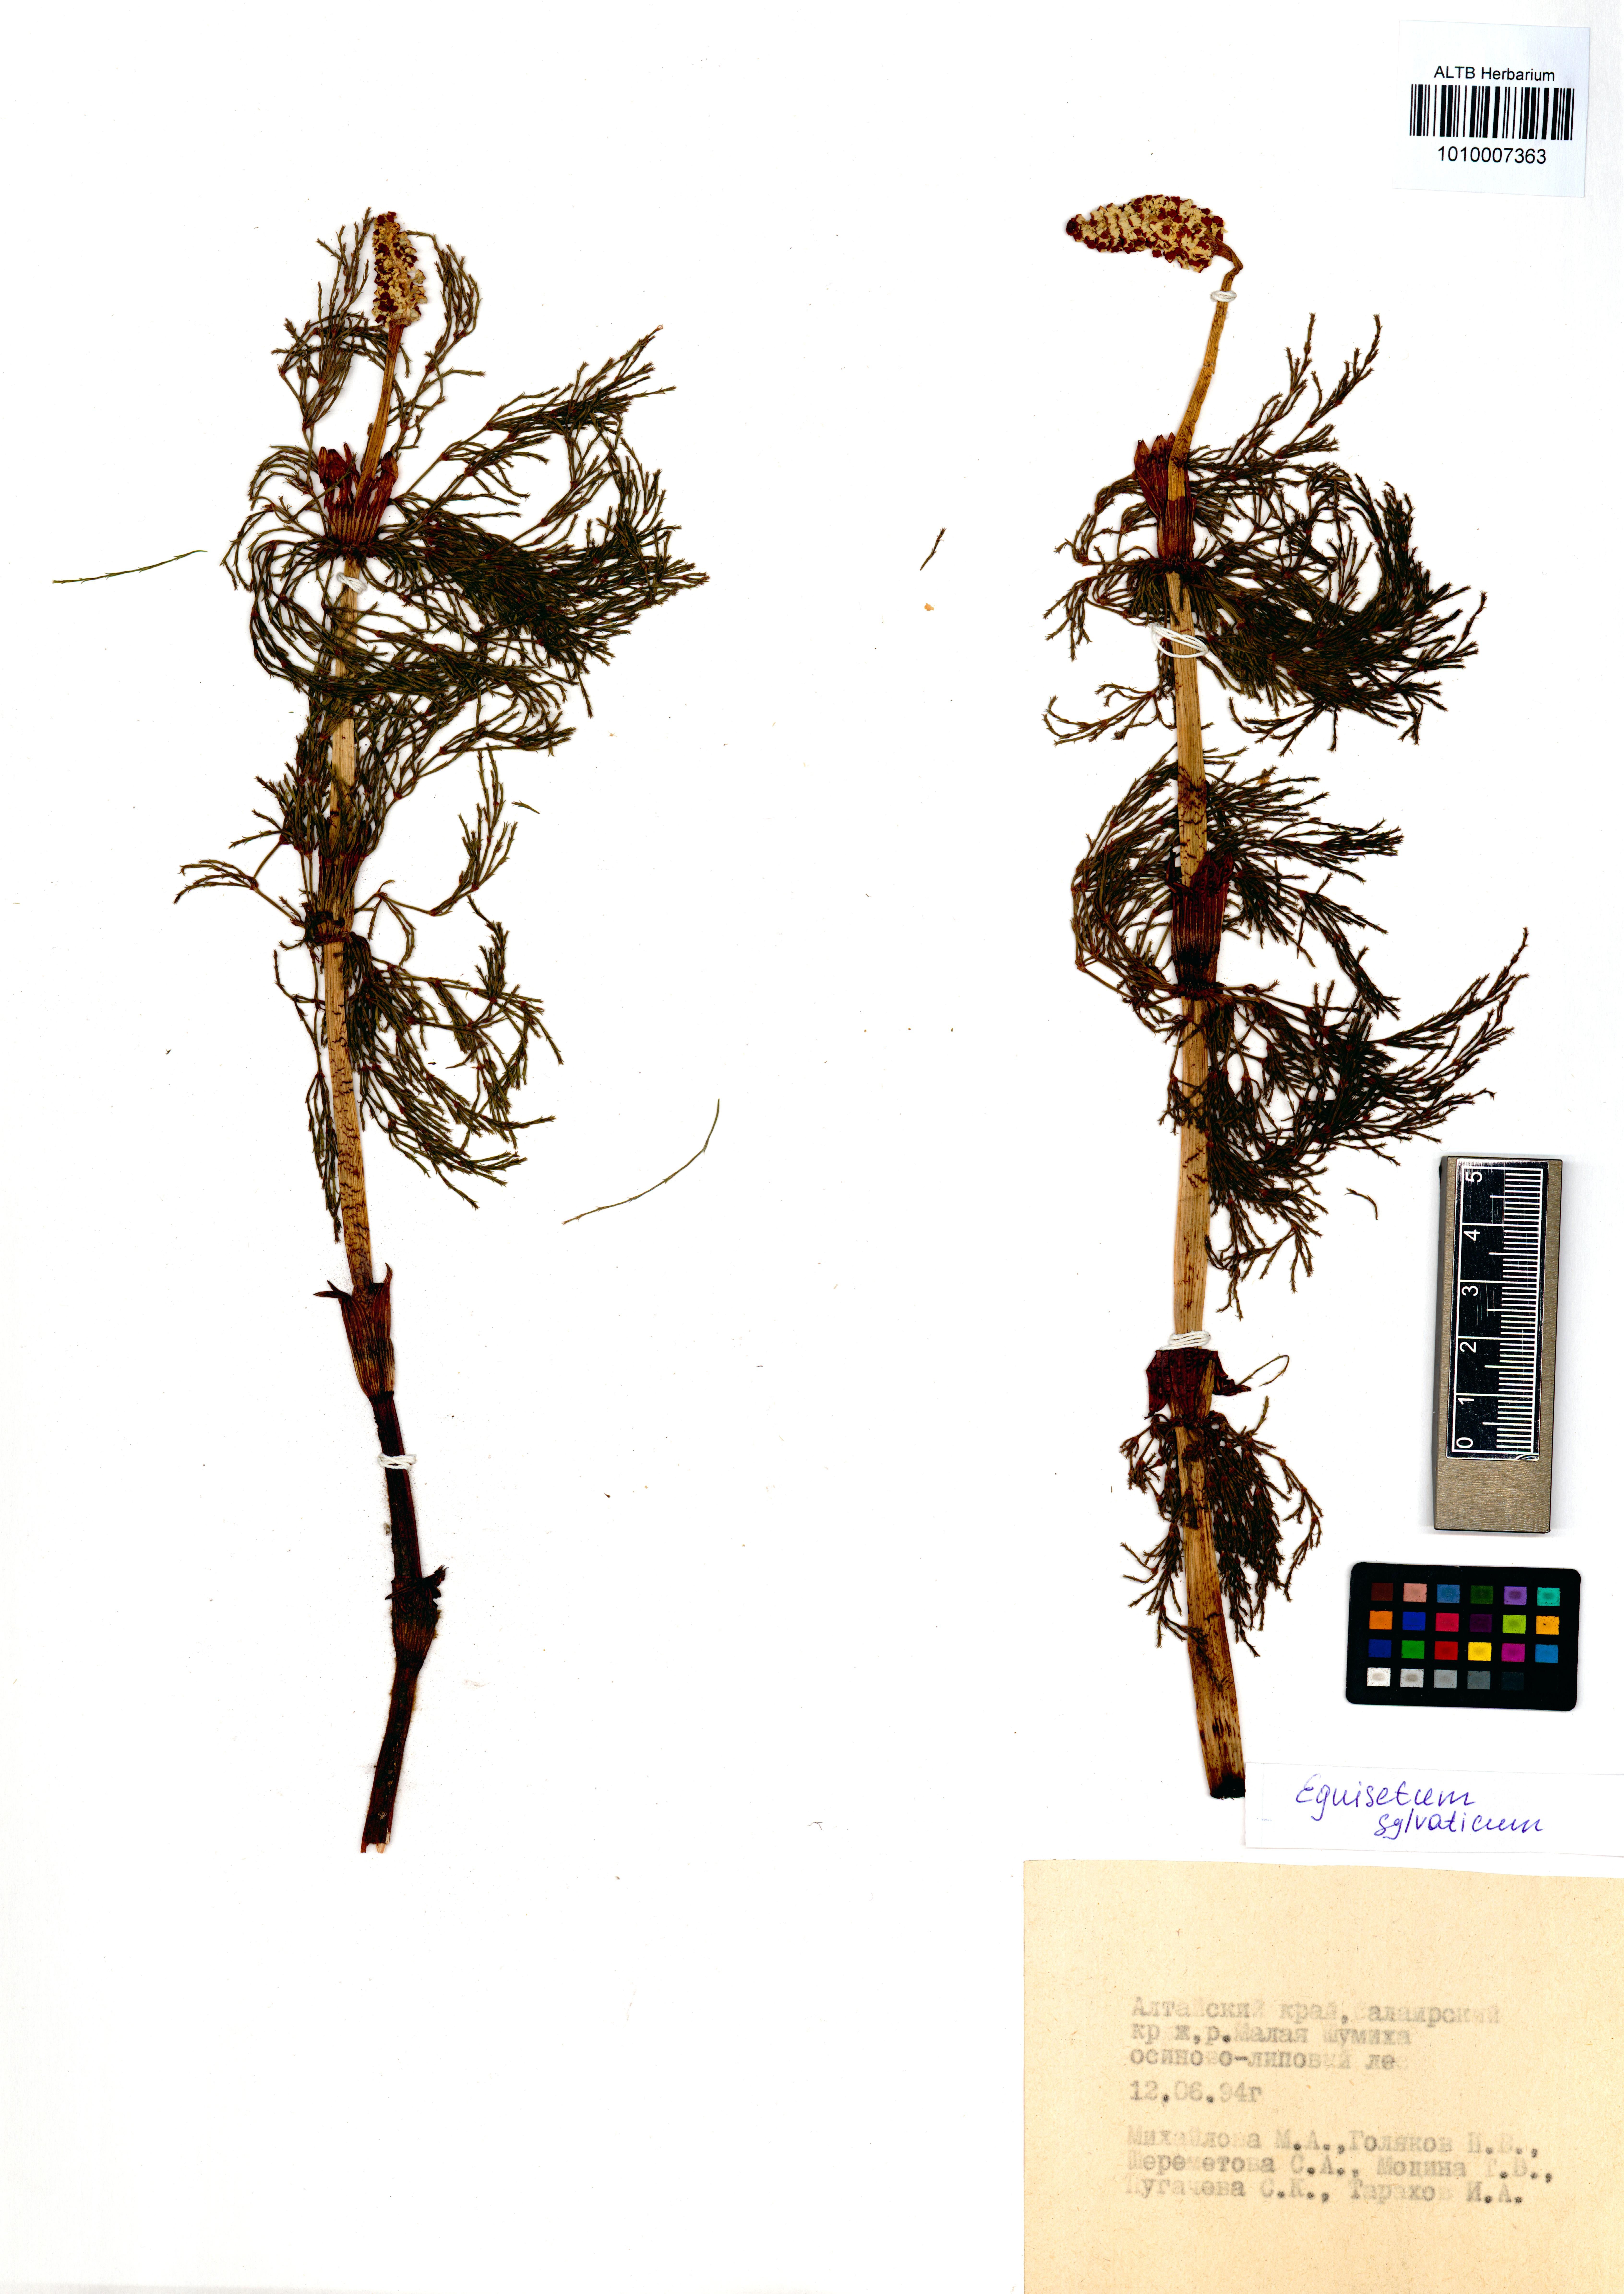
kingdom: Plantae
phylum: Tracheophyta
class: Polypodiopsida
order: Equisetales
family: Equisetaceae
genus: Equisetum
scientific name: Equisetum sylvaticum
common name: Wood horsetail
